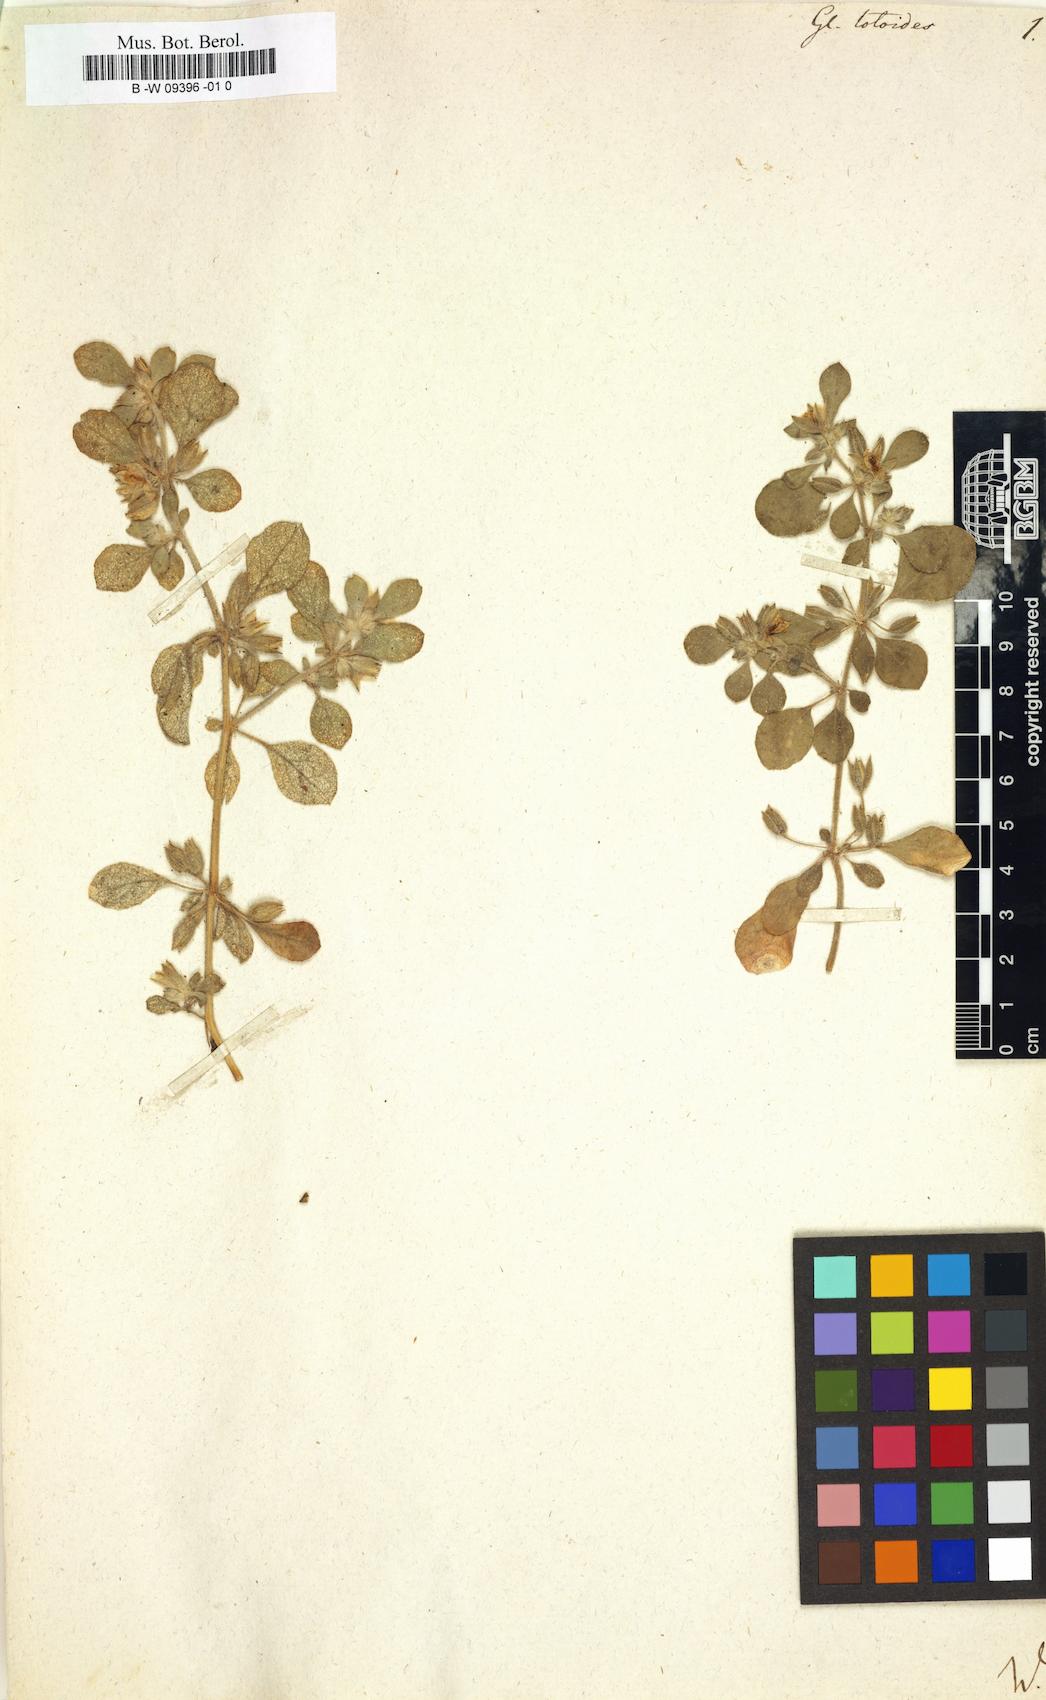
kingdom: Plantae
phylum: Tracheophyta
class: Magnoliopsida
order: Caryophyllales
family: Molluginaceae
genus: Glinus
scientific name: Glinus lotoides
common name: Lotus sweetjuice
